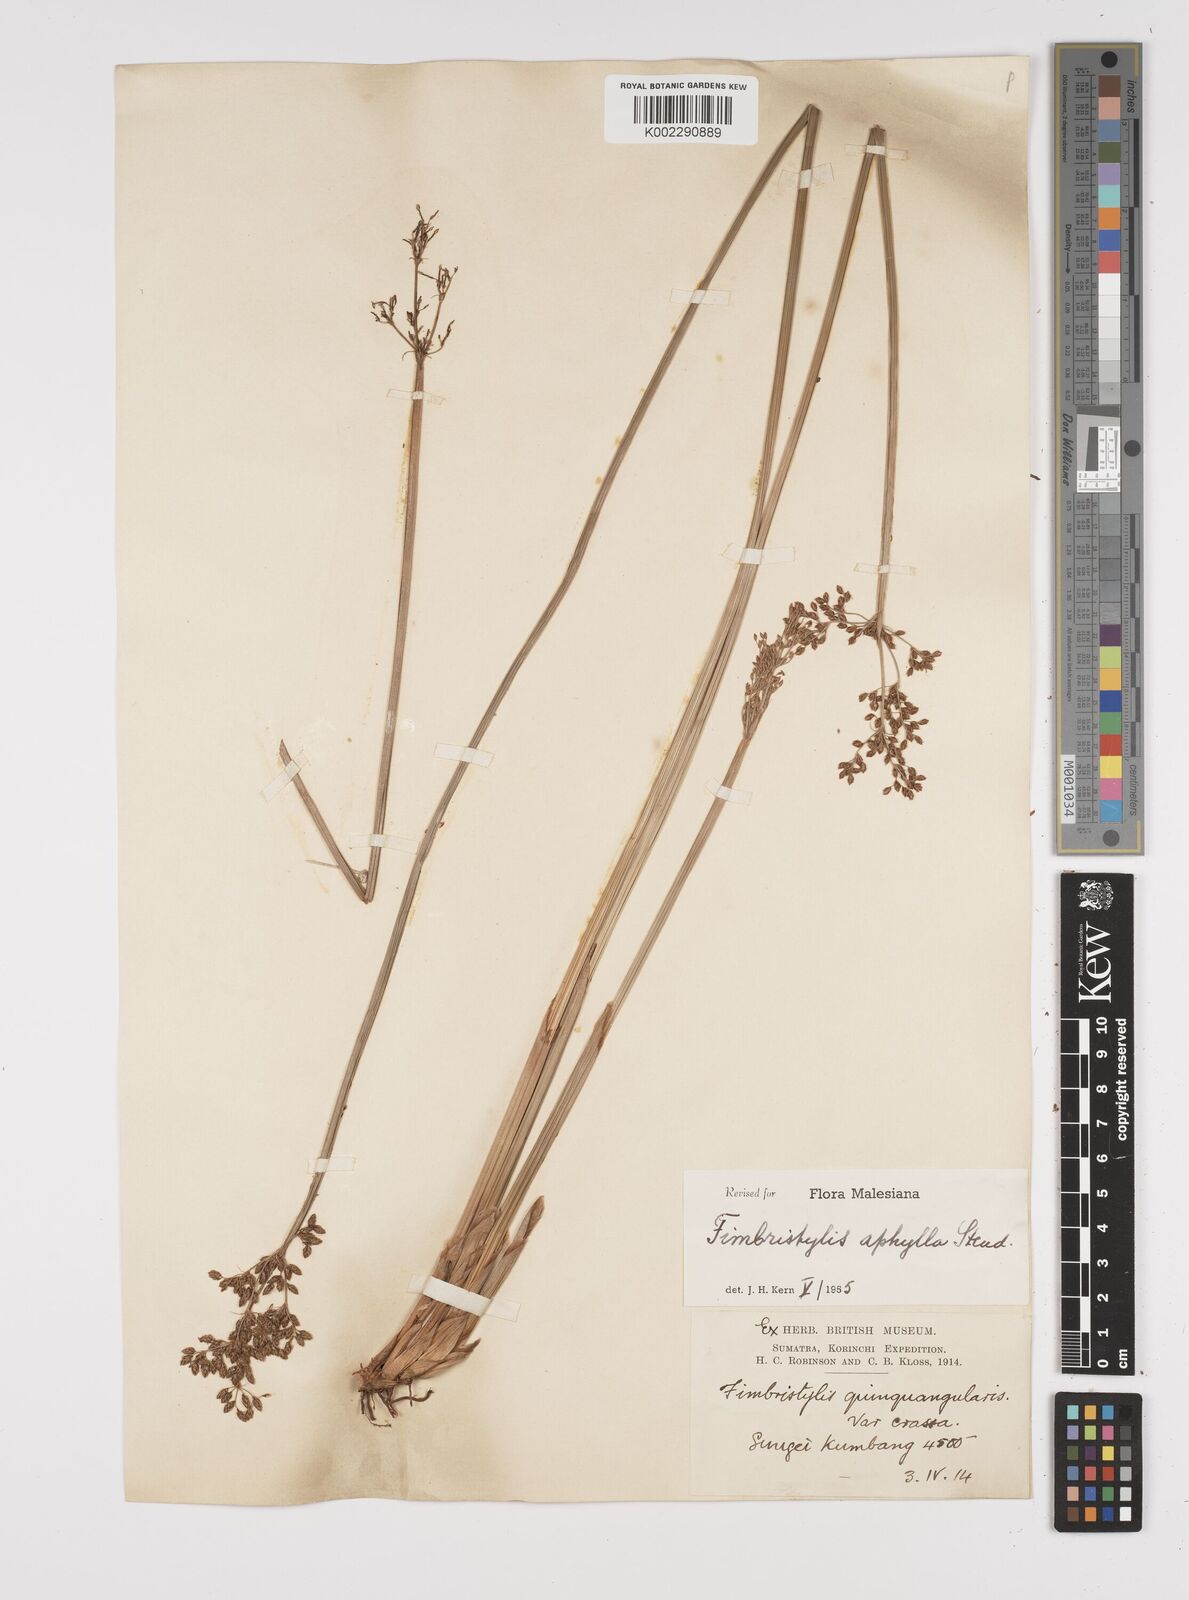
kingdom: Plantae
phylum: Tracheophyta
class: Liliopsida
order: Poales
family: Cyperaceae
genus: Fimbristylis
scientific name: Fimbristylis aphylla
